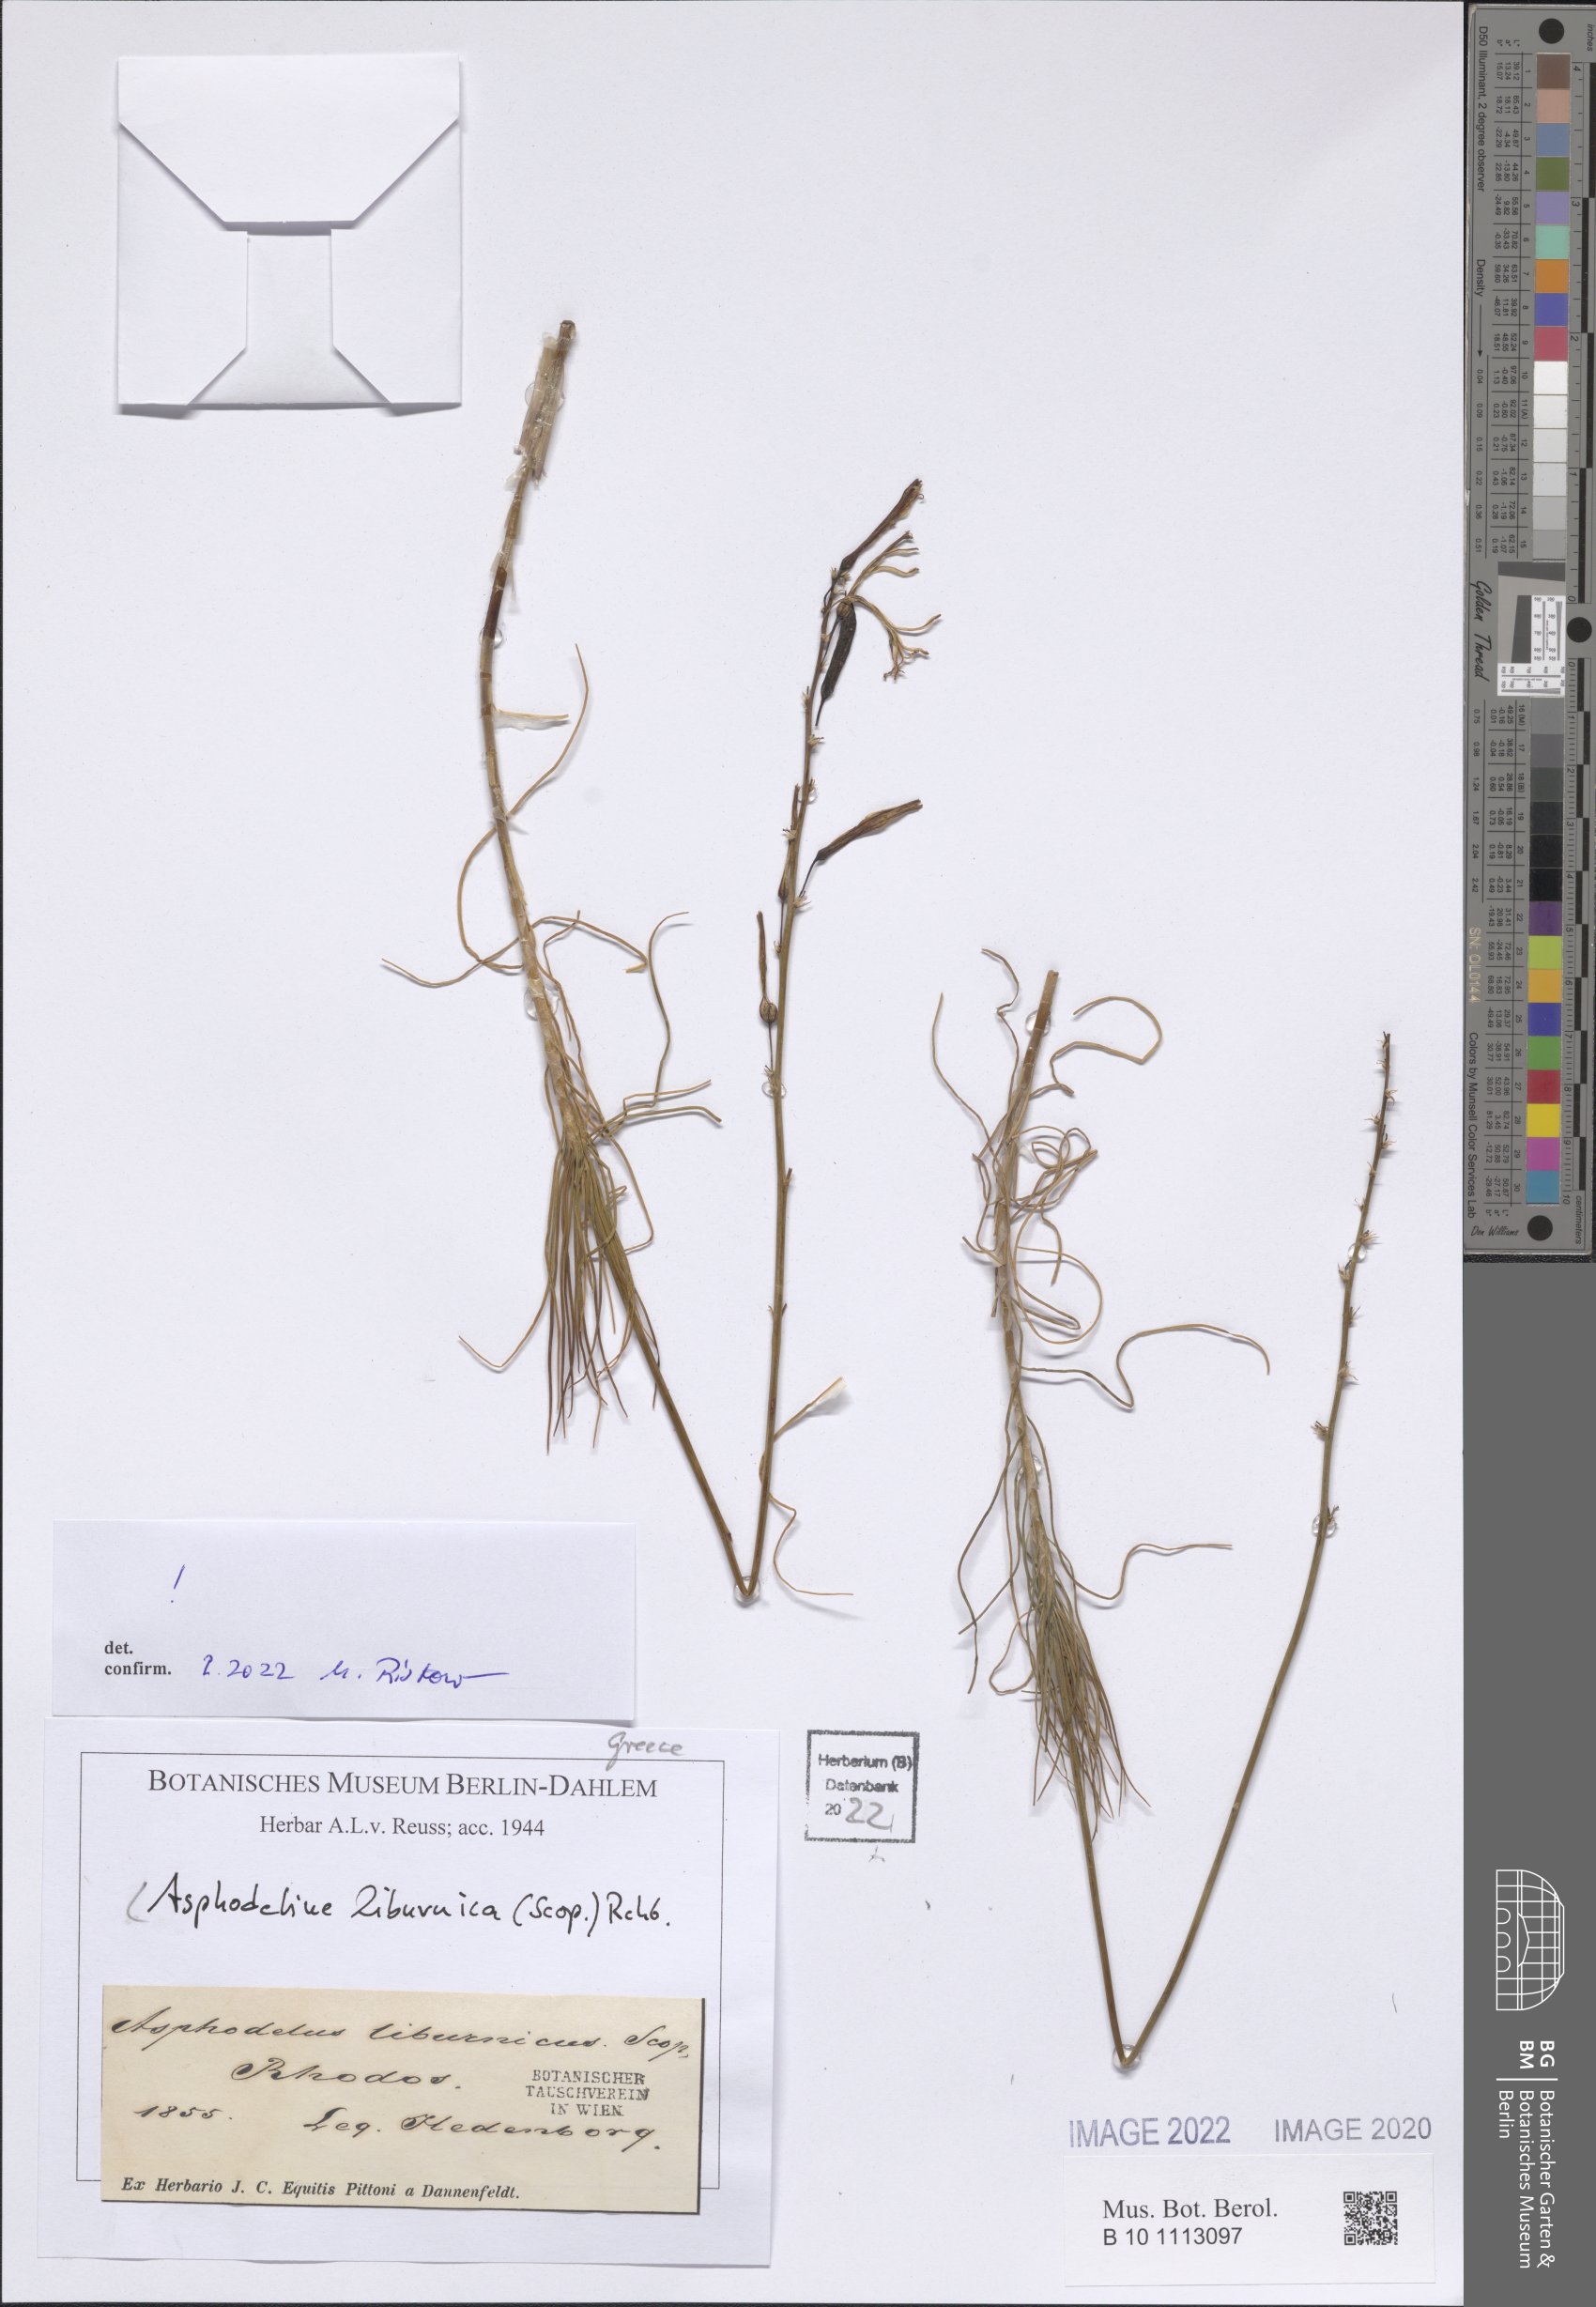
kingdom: Plantae
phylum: Tracheophyta
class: Liliopsida
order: Asparagales
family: Asphodelaceae
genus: Asphodeline
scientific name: Asphodeline liburnica
